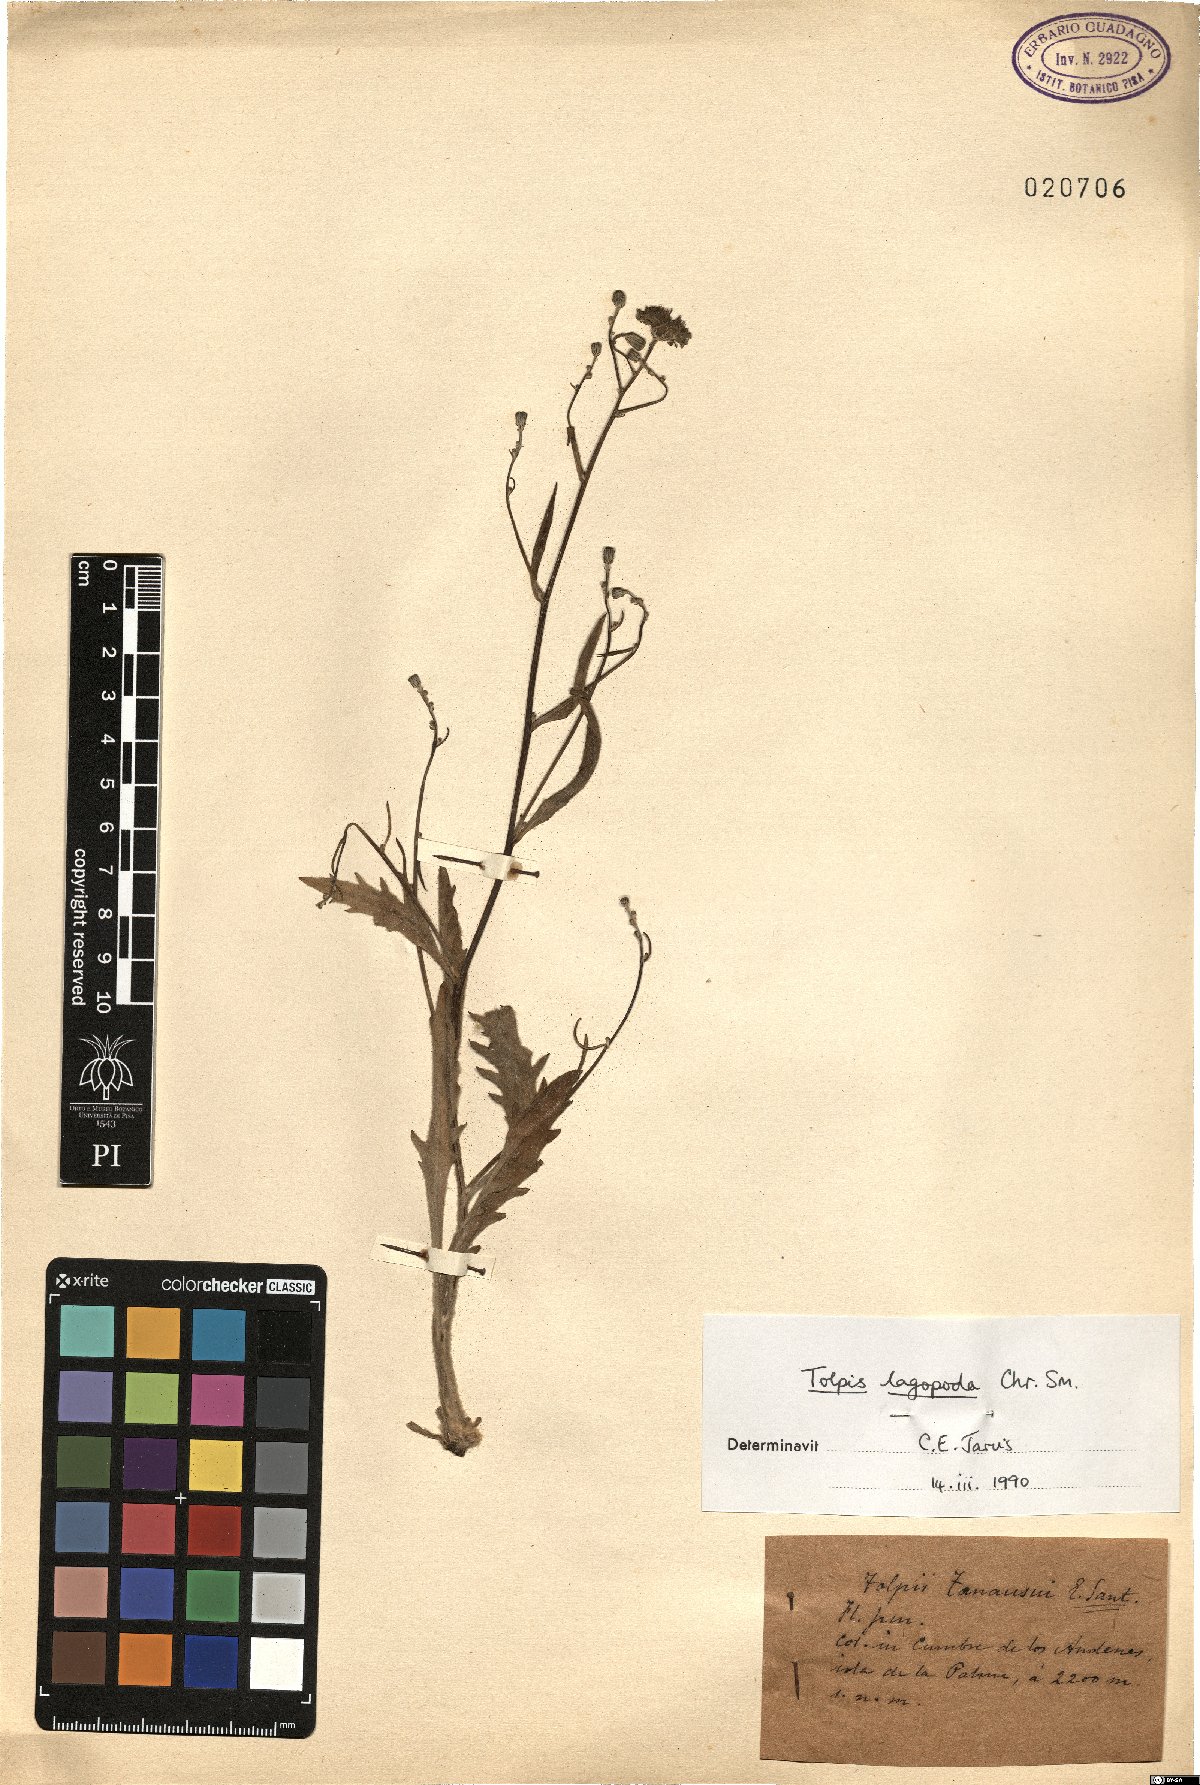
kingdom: Plantae
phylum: Tracheophyta
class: Magnoliopsida
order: Asterales
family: Asteraceae
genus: Tolpis
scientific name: Tolpis lagopoda
